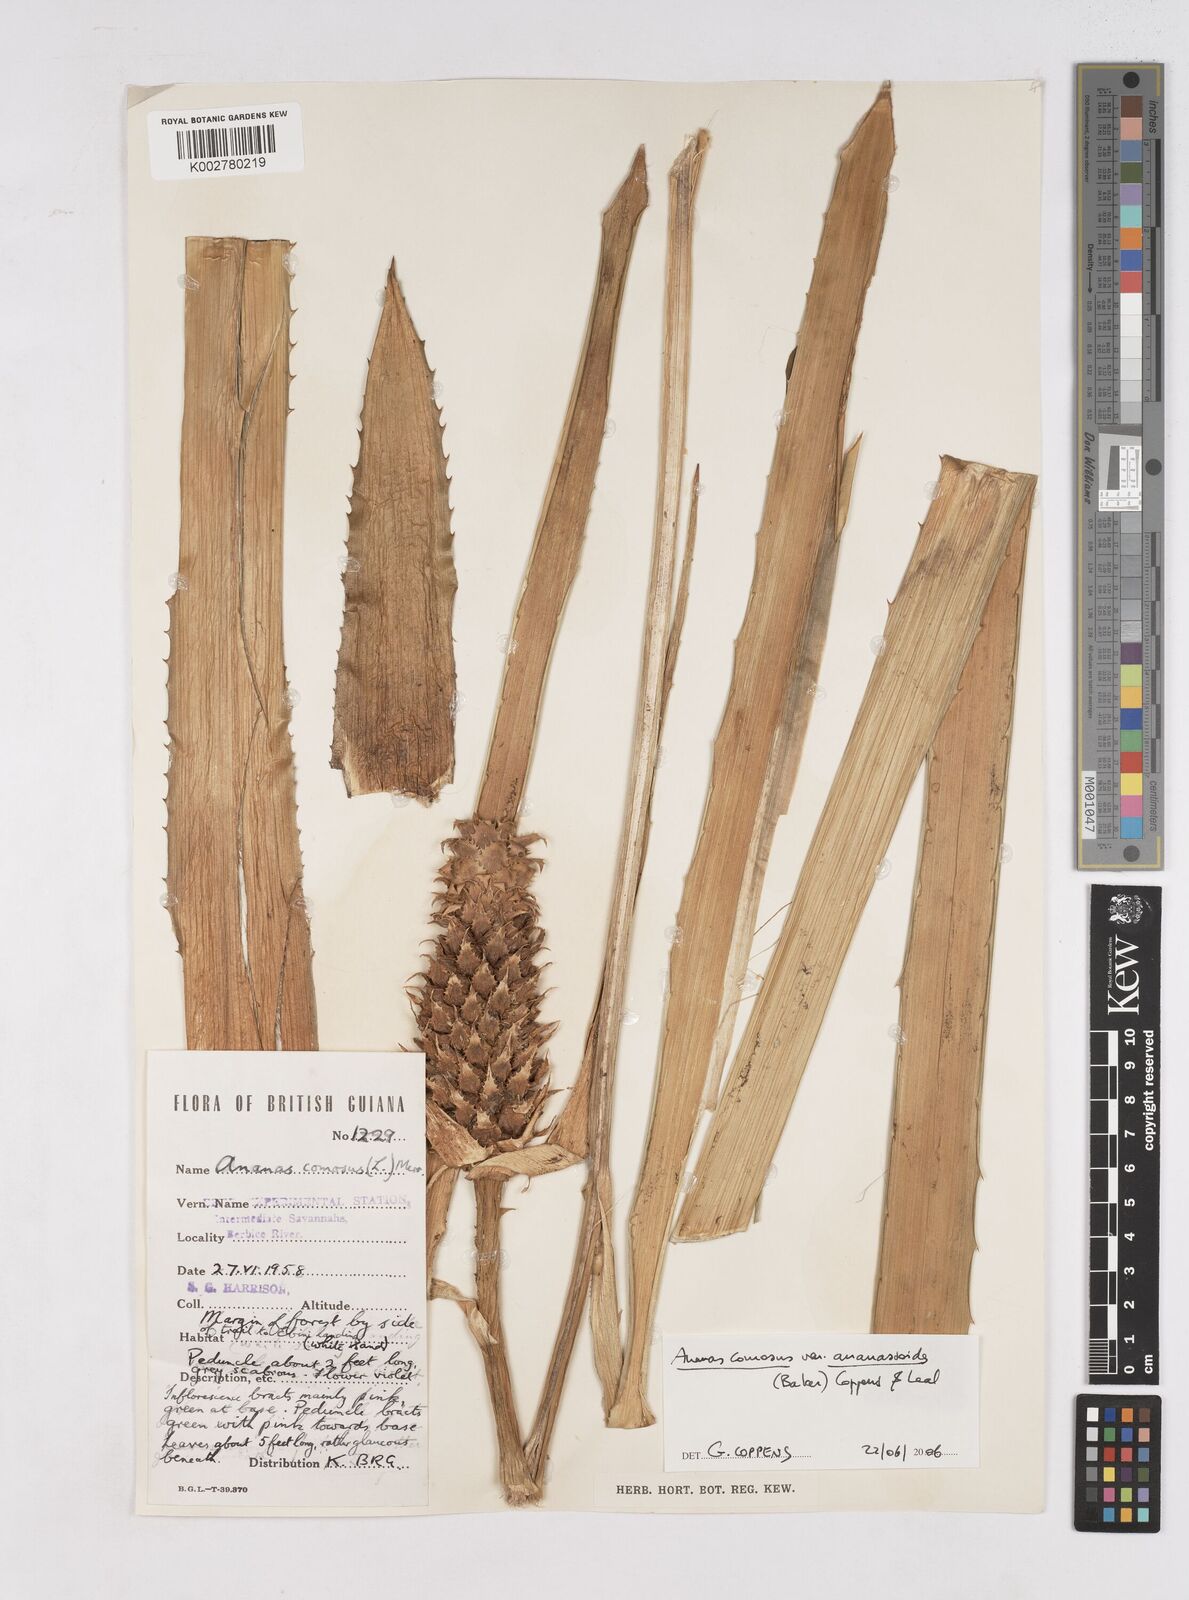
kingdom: Plantae
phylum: Tracheophyta
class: Liliopsida
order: Poales
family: Bromeliaceae
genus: Ananas
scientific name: Ananas comosus
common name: Pineapple
